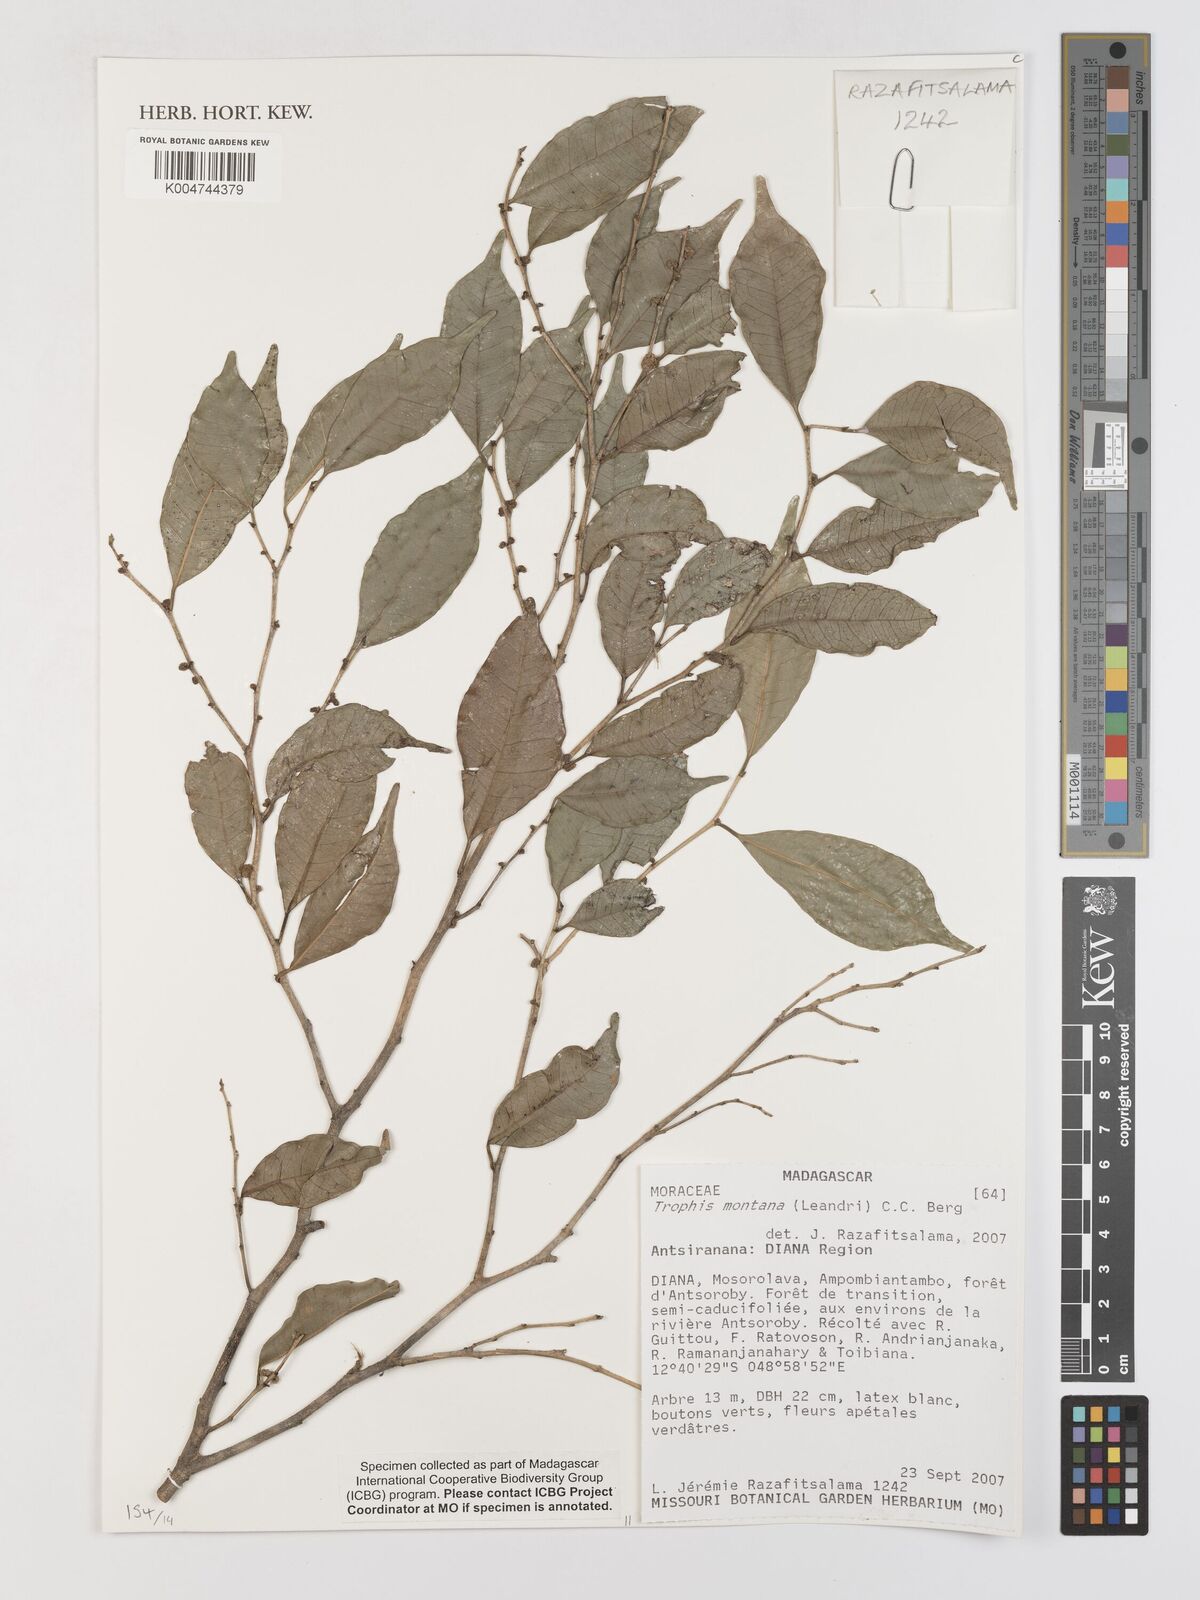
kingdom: Plantae
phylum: Tracheophyta
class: Magnoliopsida
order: Rosales
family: Moraceae
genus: Maillardia
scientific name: Maillardia montana
